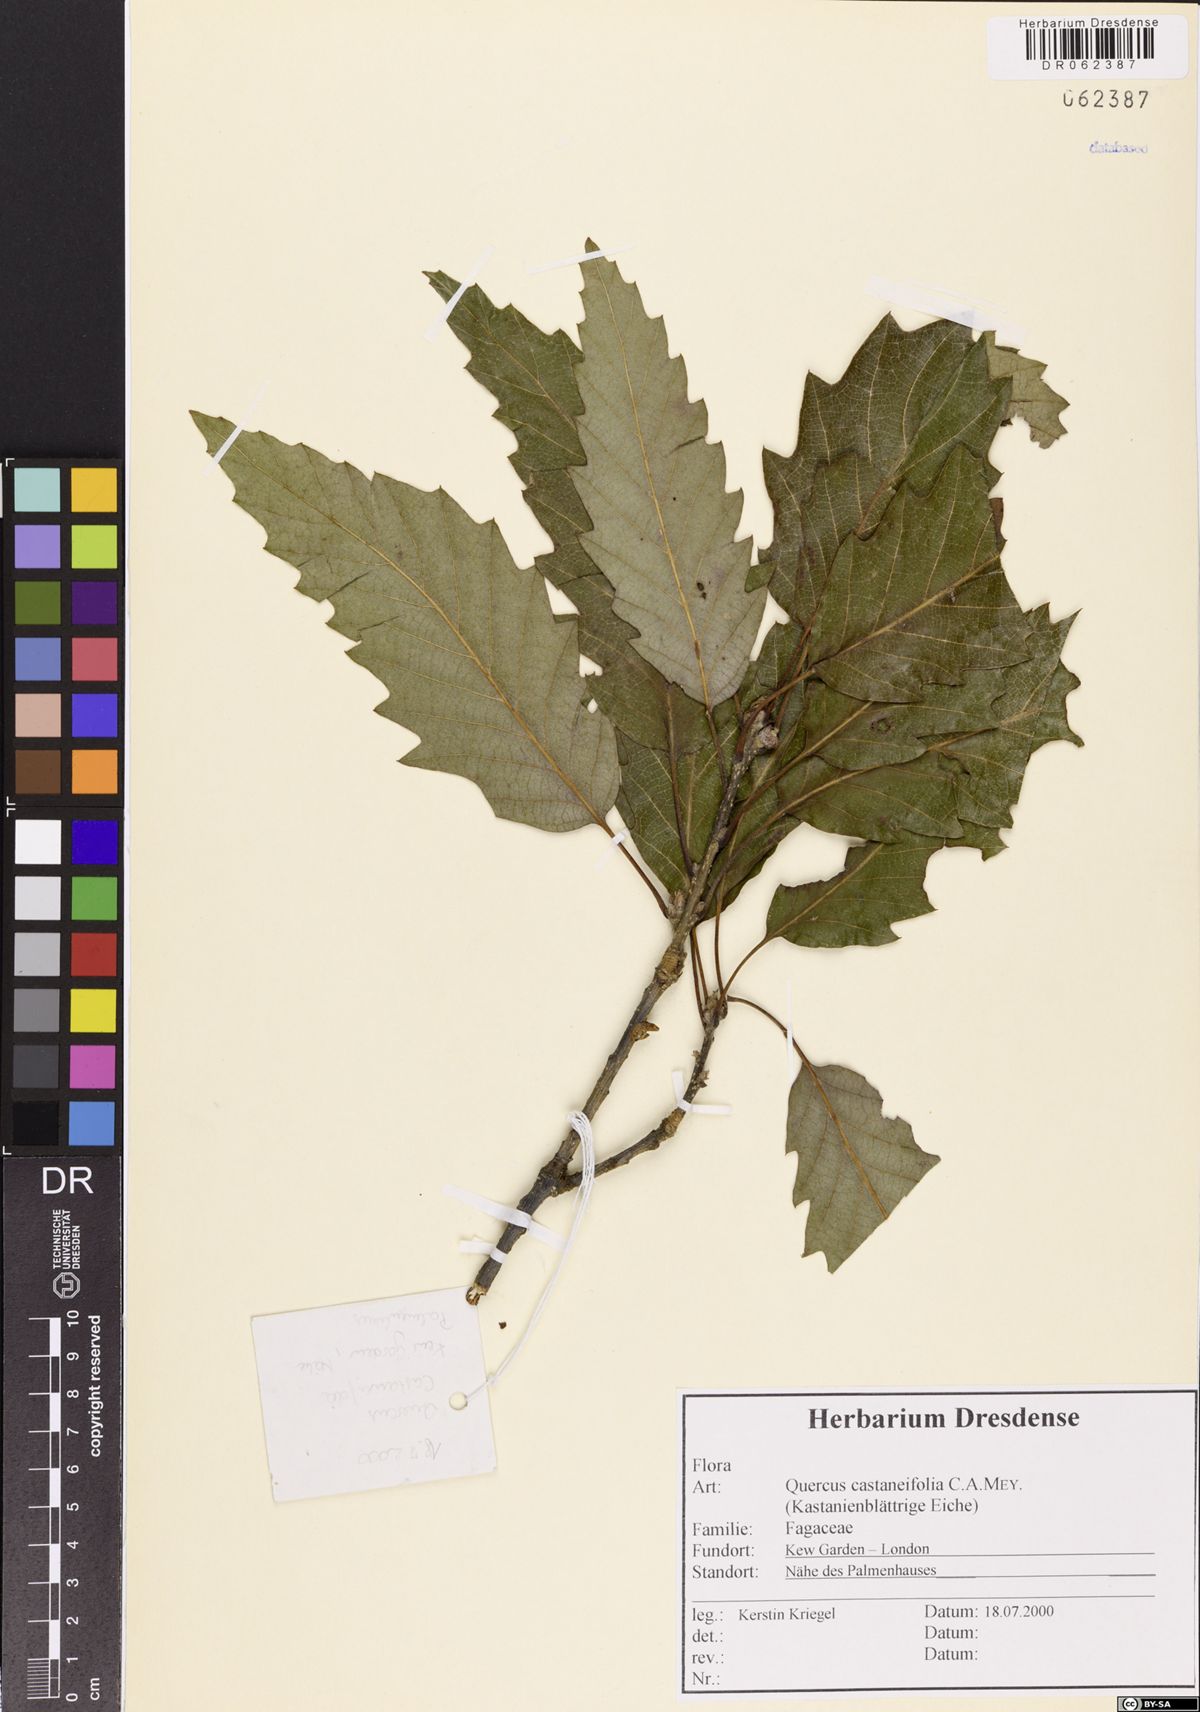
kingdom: Plantae
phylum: Tracheophyta
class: Magnoliopsida
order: Fagales
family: Fagaceae
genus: Quercus
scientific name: Quercus castaneifolia
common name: Chestnut-leaved oak
